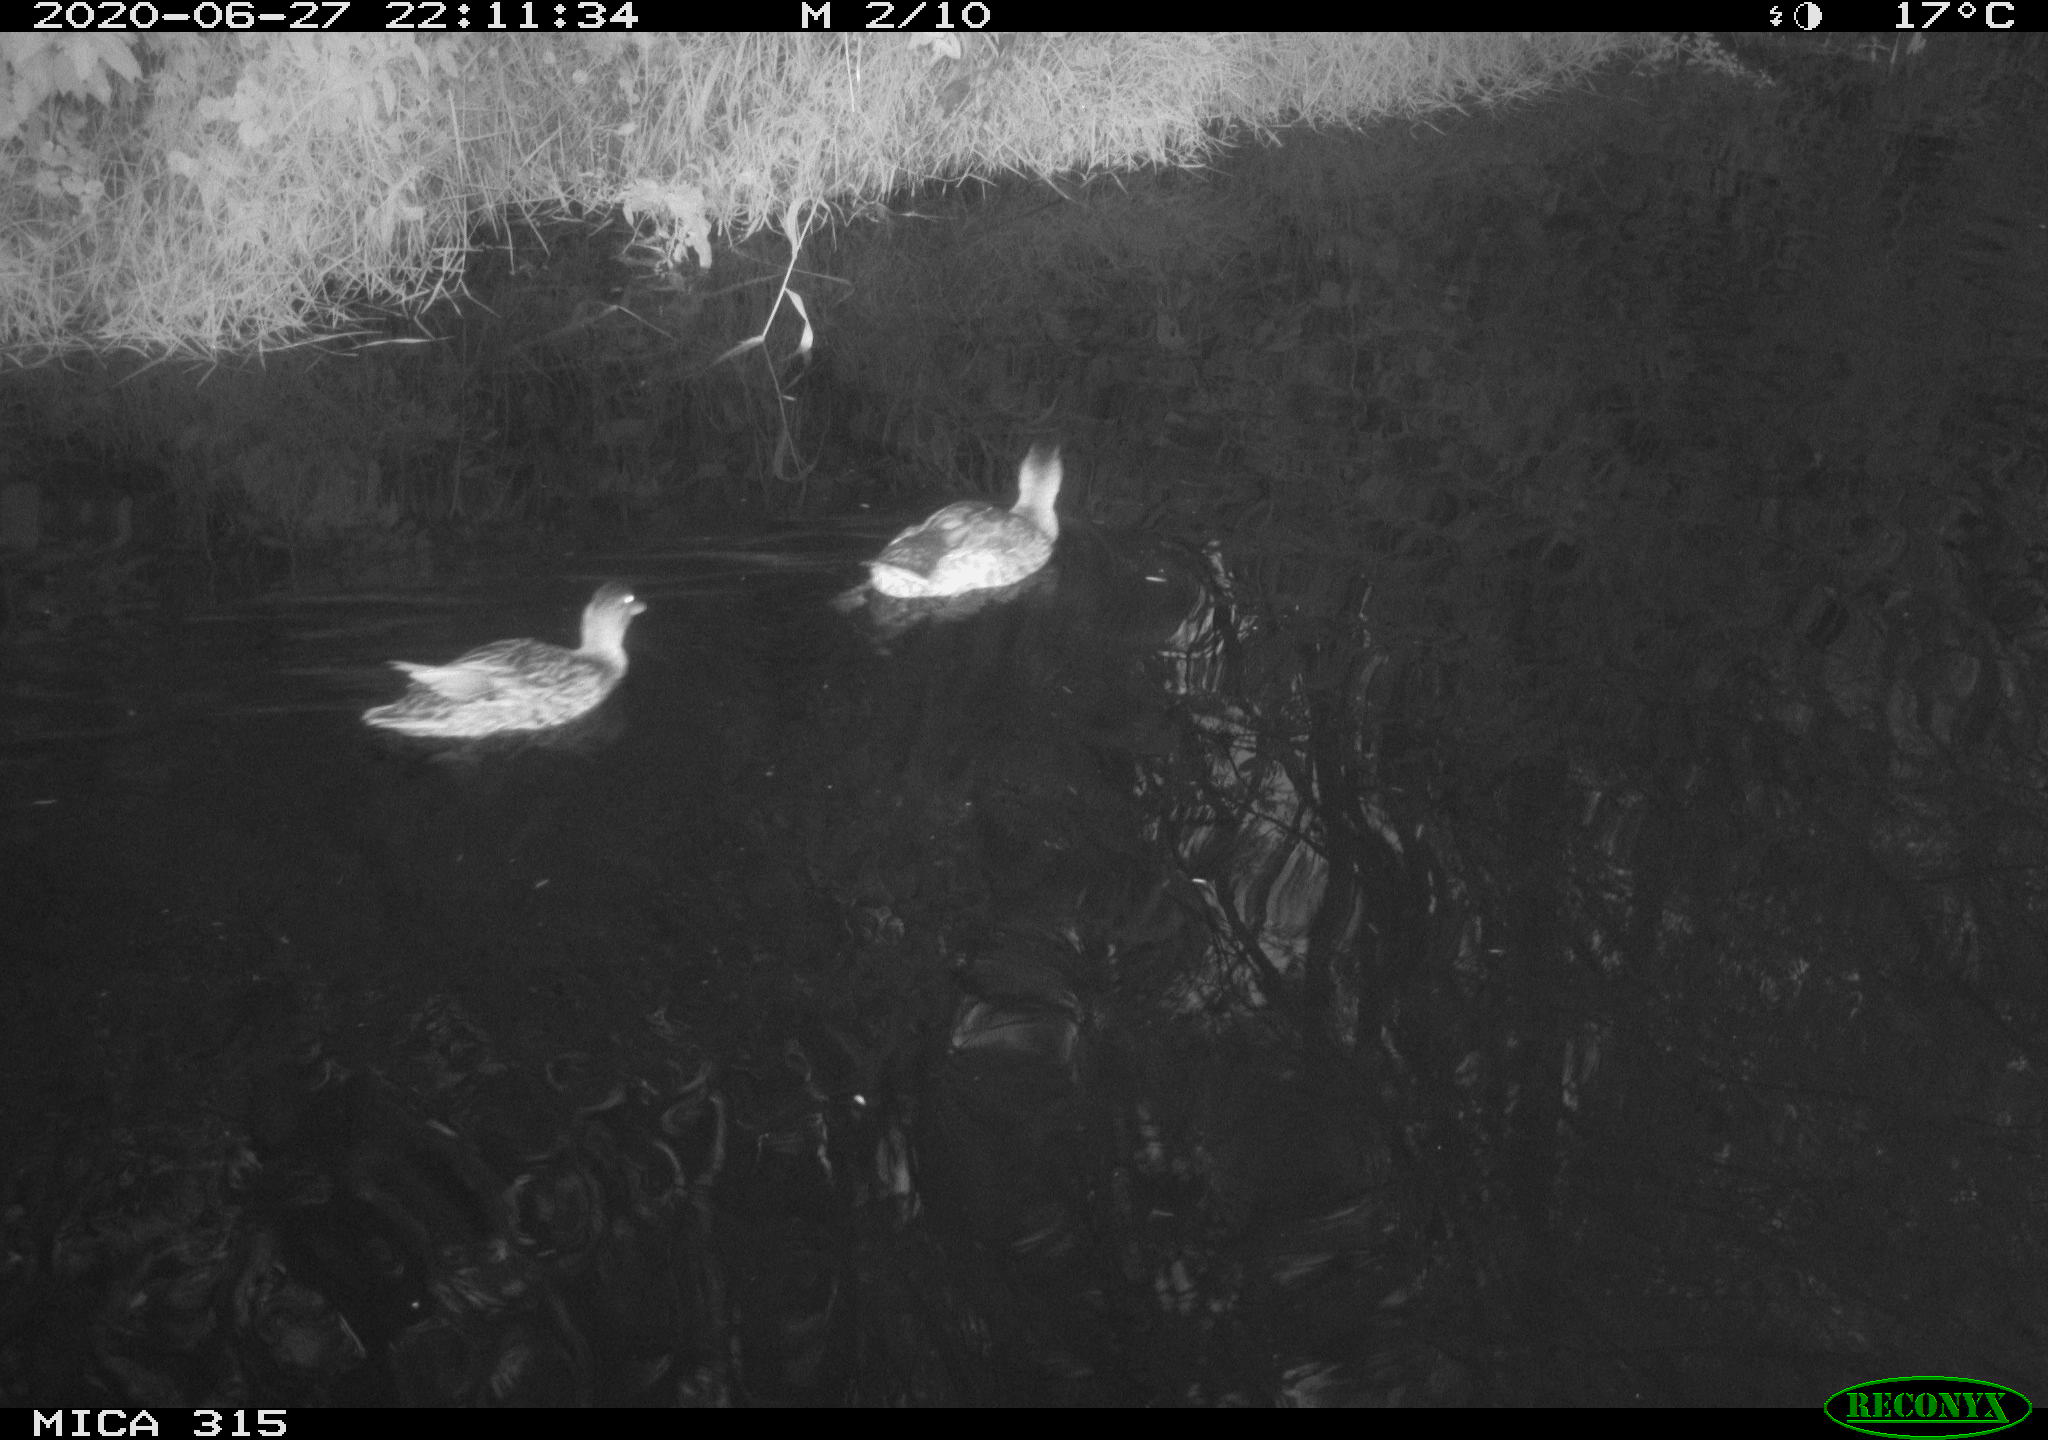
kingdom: Animalia
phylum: Chordata
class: Aves
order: Anseriformes
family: Anatidae
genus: Anas
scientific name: Anas platyrhynchos
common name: Mallard
